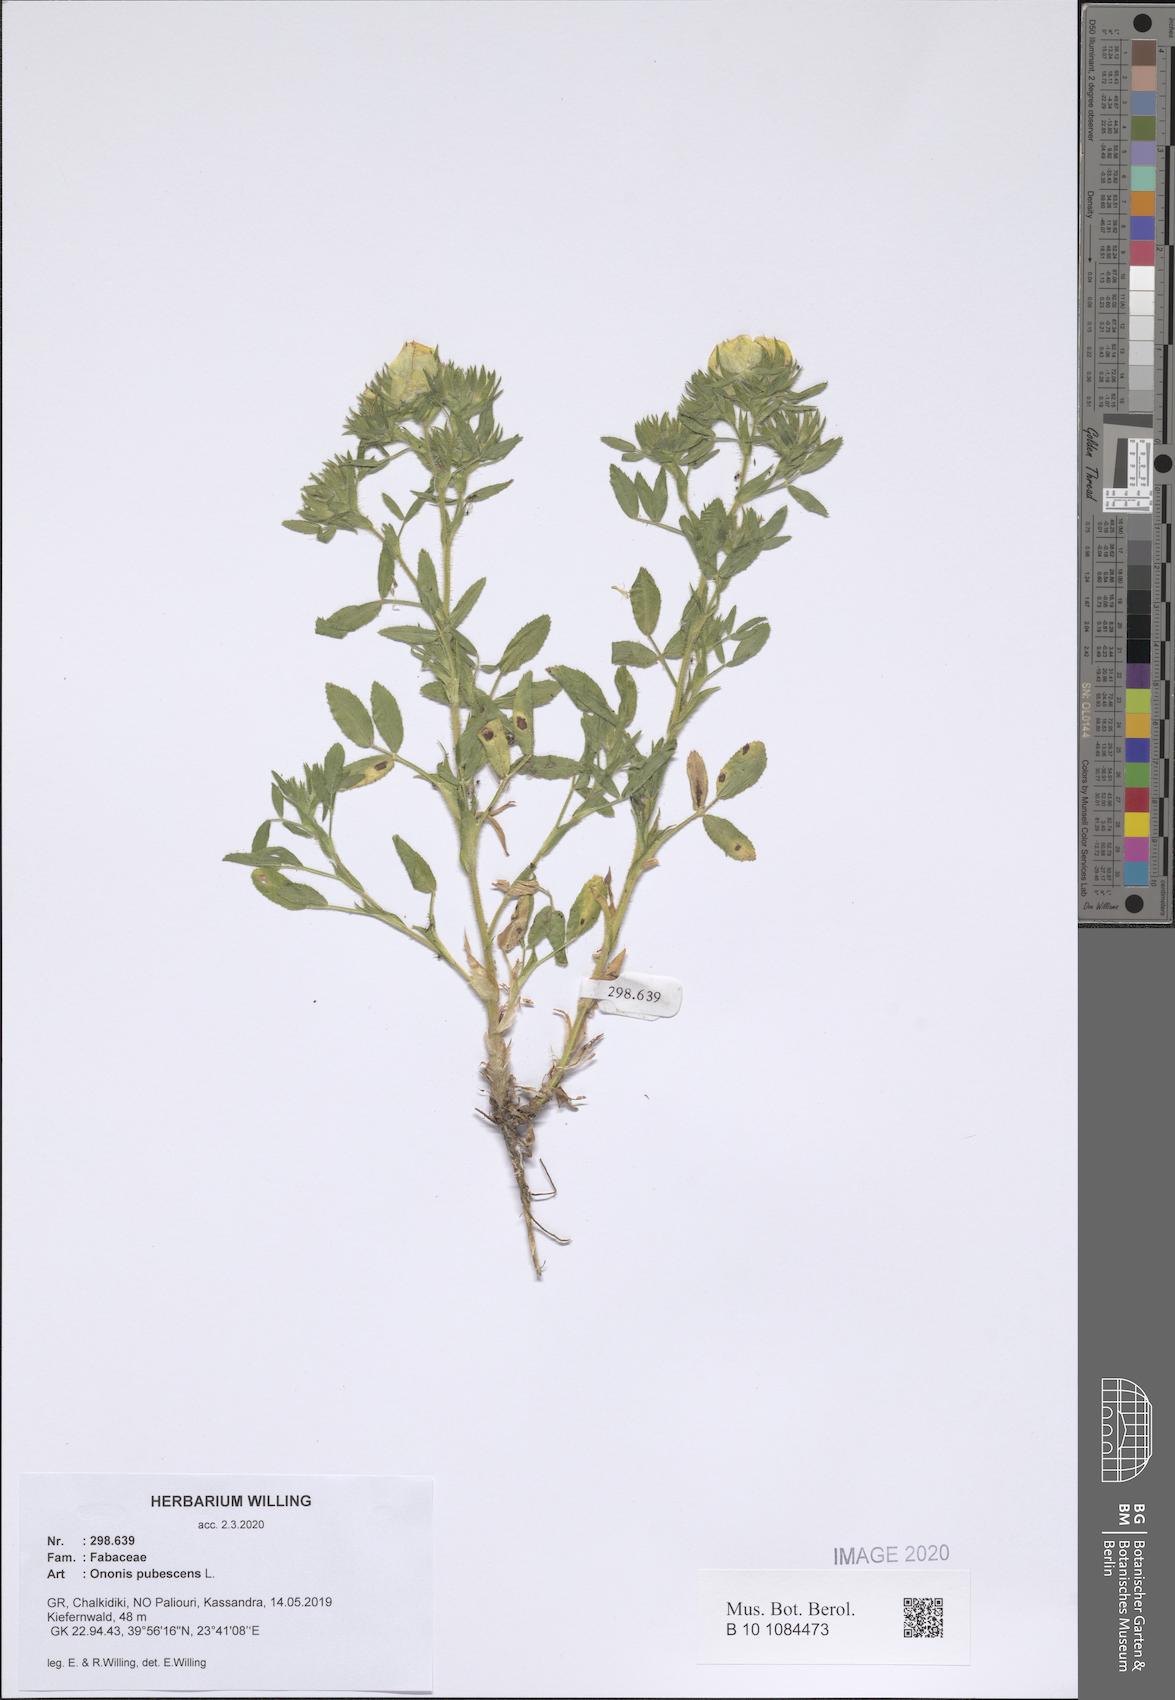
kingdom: Plantae
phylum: Tracheophyta
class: Magnoliopsida
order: Fabales
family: Fabaceae
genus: Ononis
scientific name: Ononis pubescens
